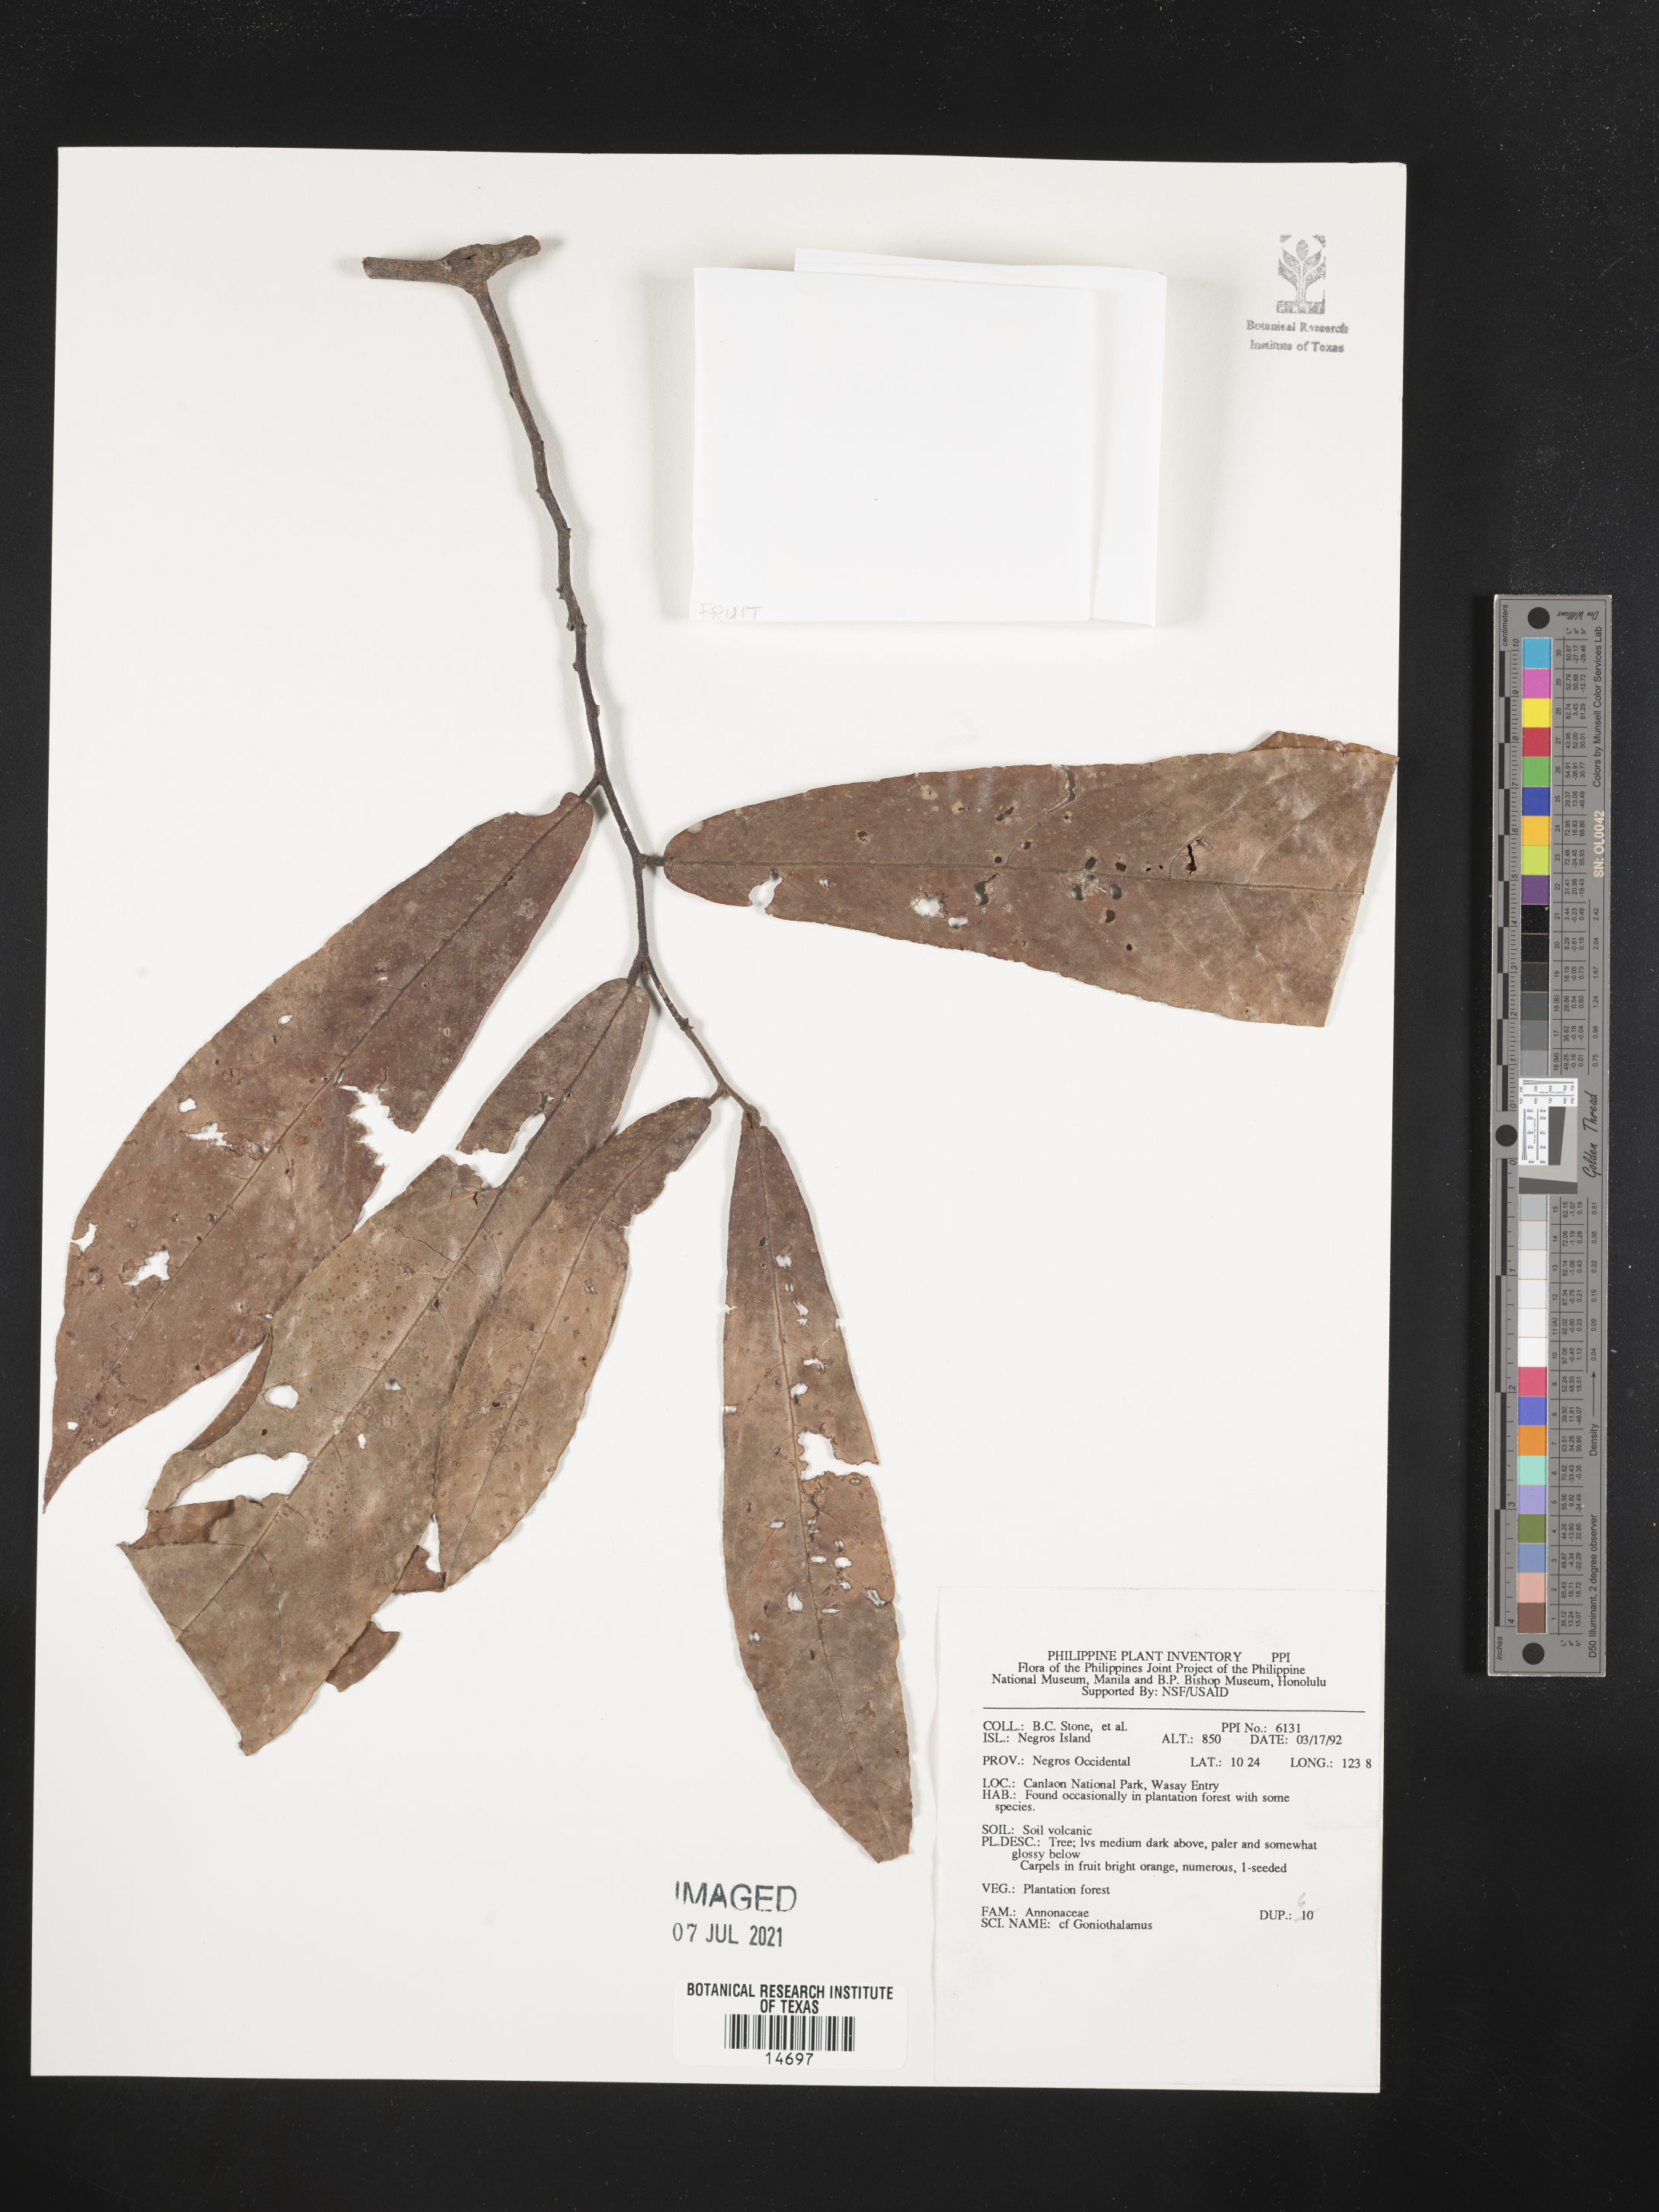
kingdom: Plantae
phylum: Tracheophyta
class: Magnoliopsida
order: Magnoliales
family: Annonaceae
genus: Goniothalamus
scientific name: Goniothalamus
